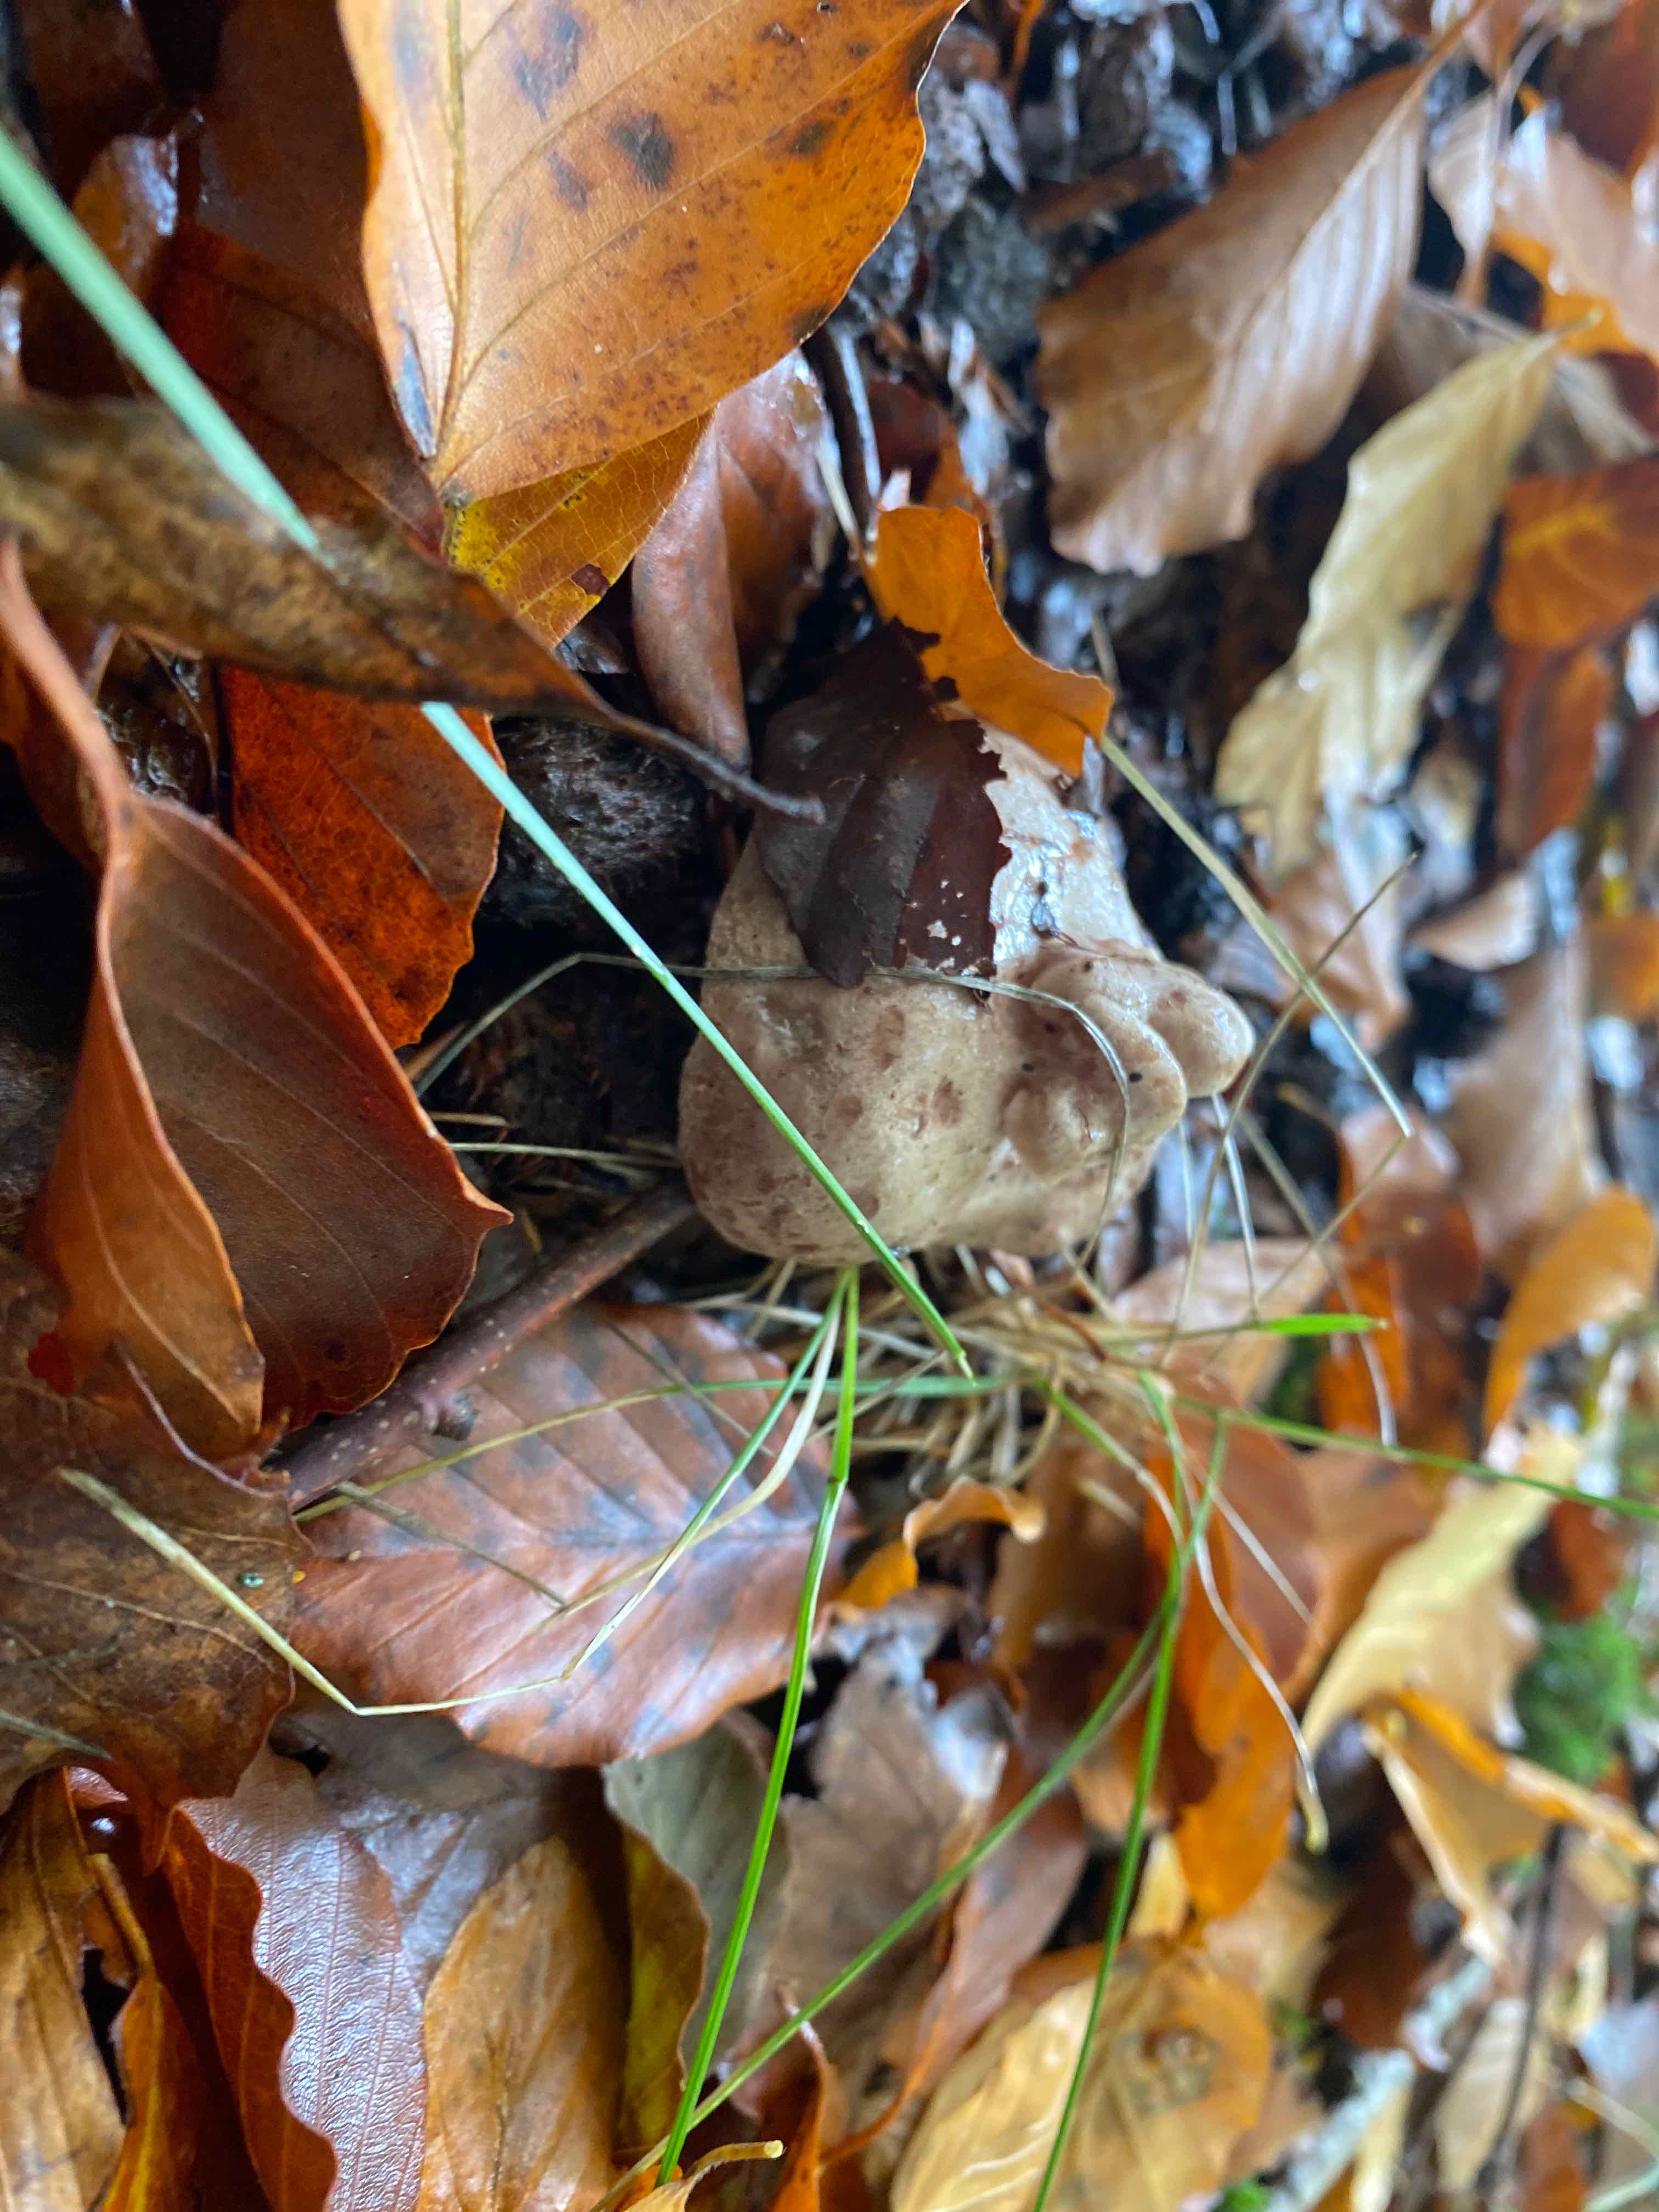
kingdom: Fungi
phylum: Basidiomycota
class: Agaricomycetes
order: Russulales
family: Russulaceae
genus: Lactarius
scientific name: Lactarius blennius
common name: dråbeplettet mælkehat
